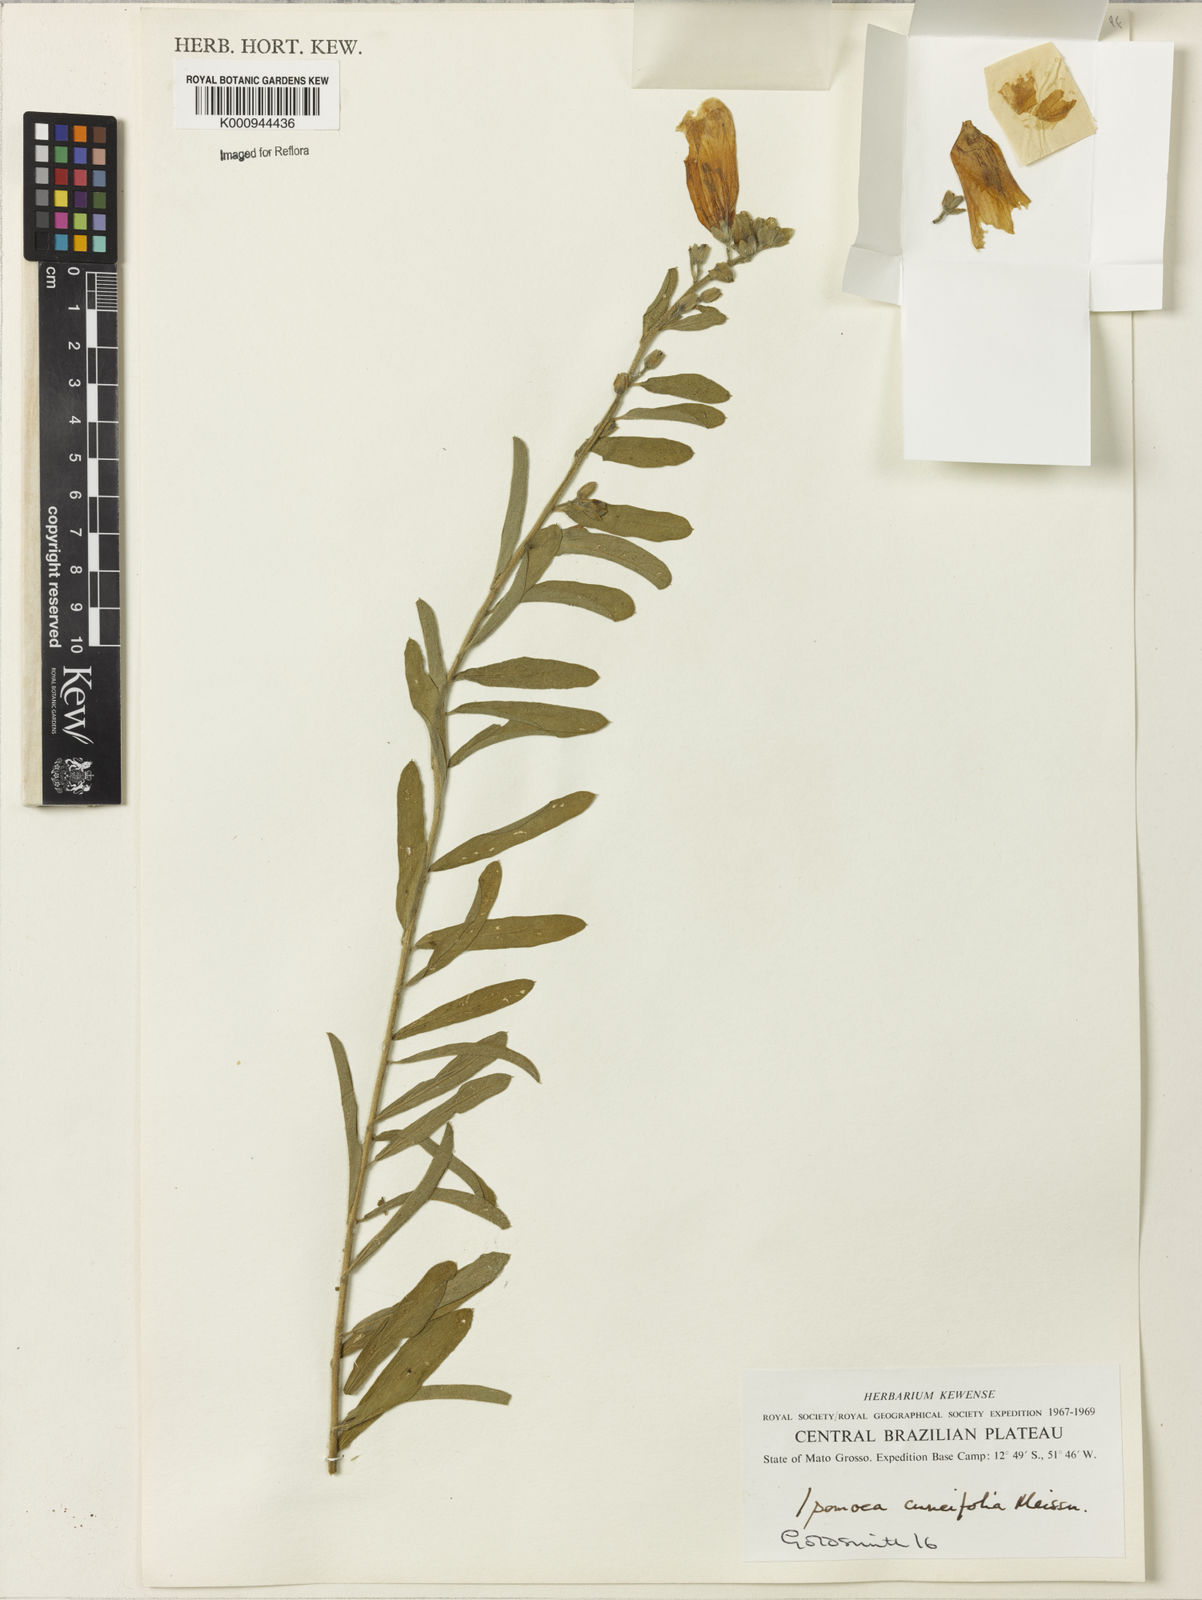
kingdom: Plantae
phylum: Tracheophyta
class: Magnoliopsida
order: Solanales
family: Convolvulaceae
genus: Ipomoea
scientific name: Ipomoea cuneifolia
